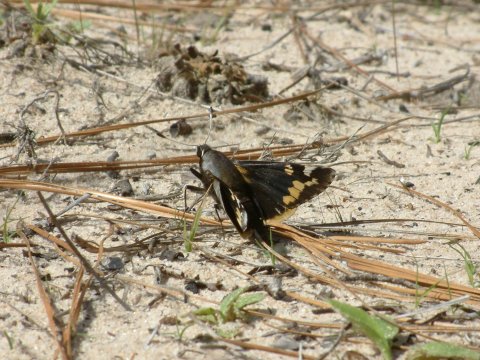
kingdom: Animalia
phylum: Arthropoda
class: Insecta
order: Lepidoptera
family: Hesperiidae
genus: Megathymus
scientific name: Megathymus yuccae
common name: Yucca Giant-Skipper
